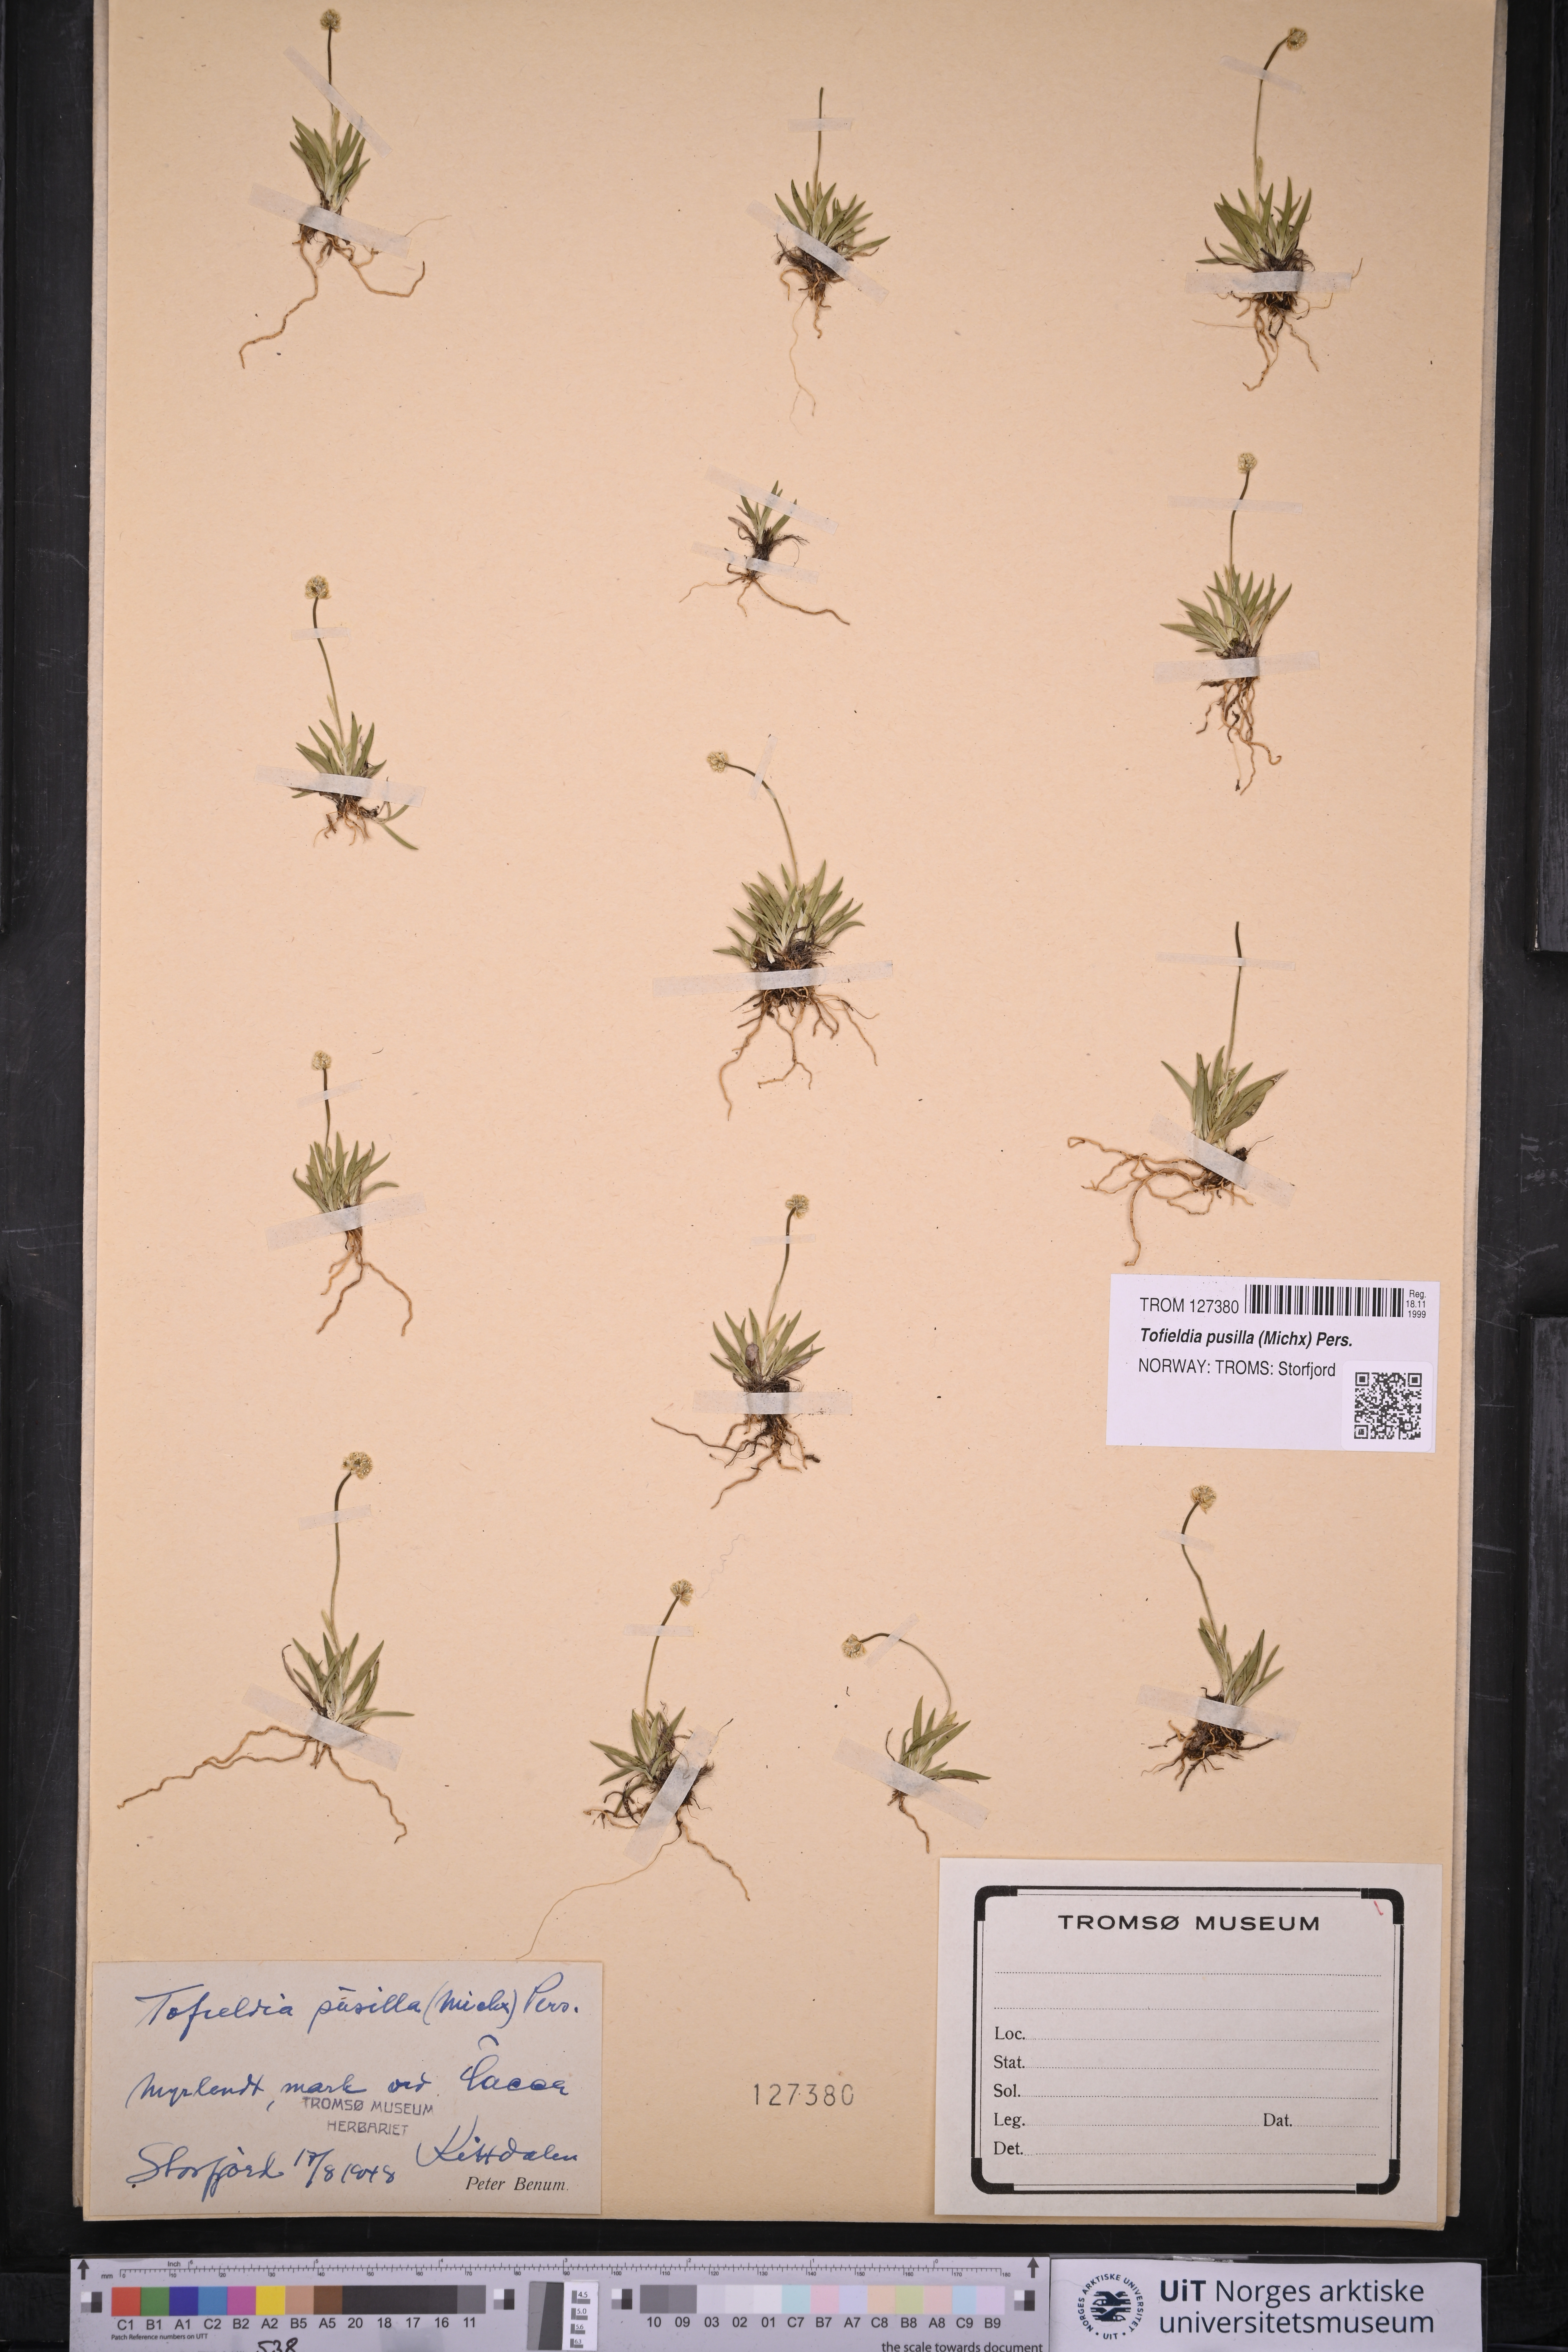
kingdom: Plantae
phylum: Tracheophyta
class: Liliopsida
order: Alismatales
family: Tofieldiaceae
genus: Tofieldia
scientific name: Tofieldia pusilla
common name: Scottish false asphodel
